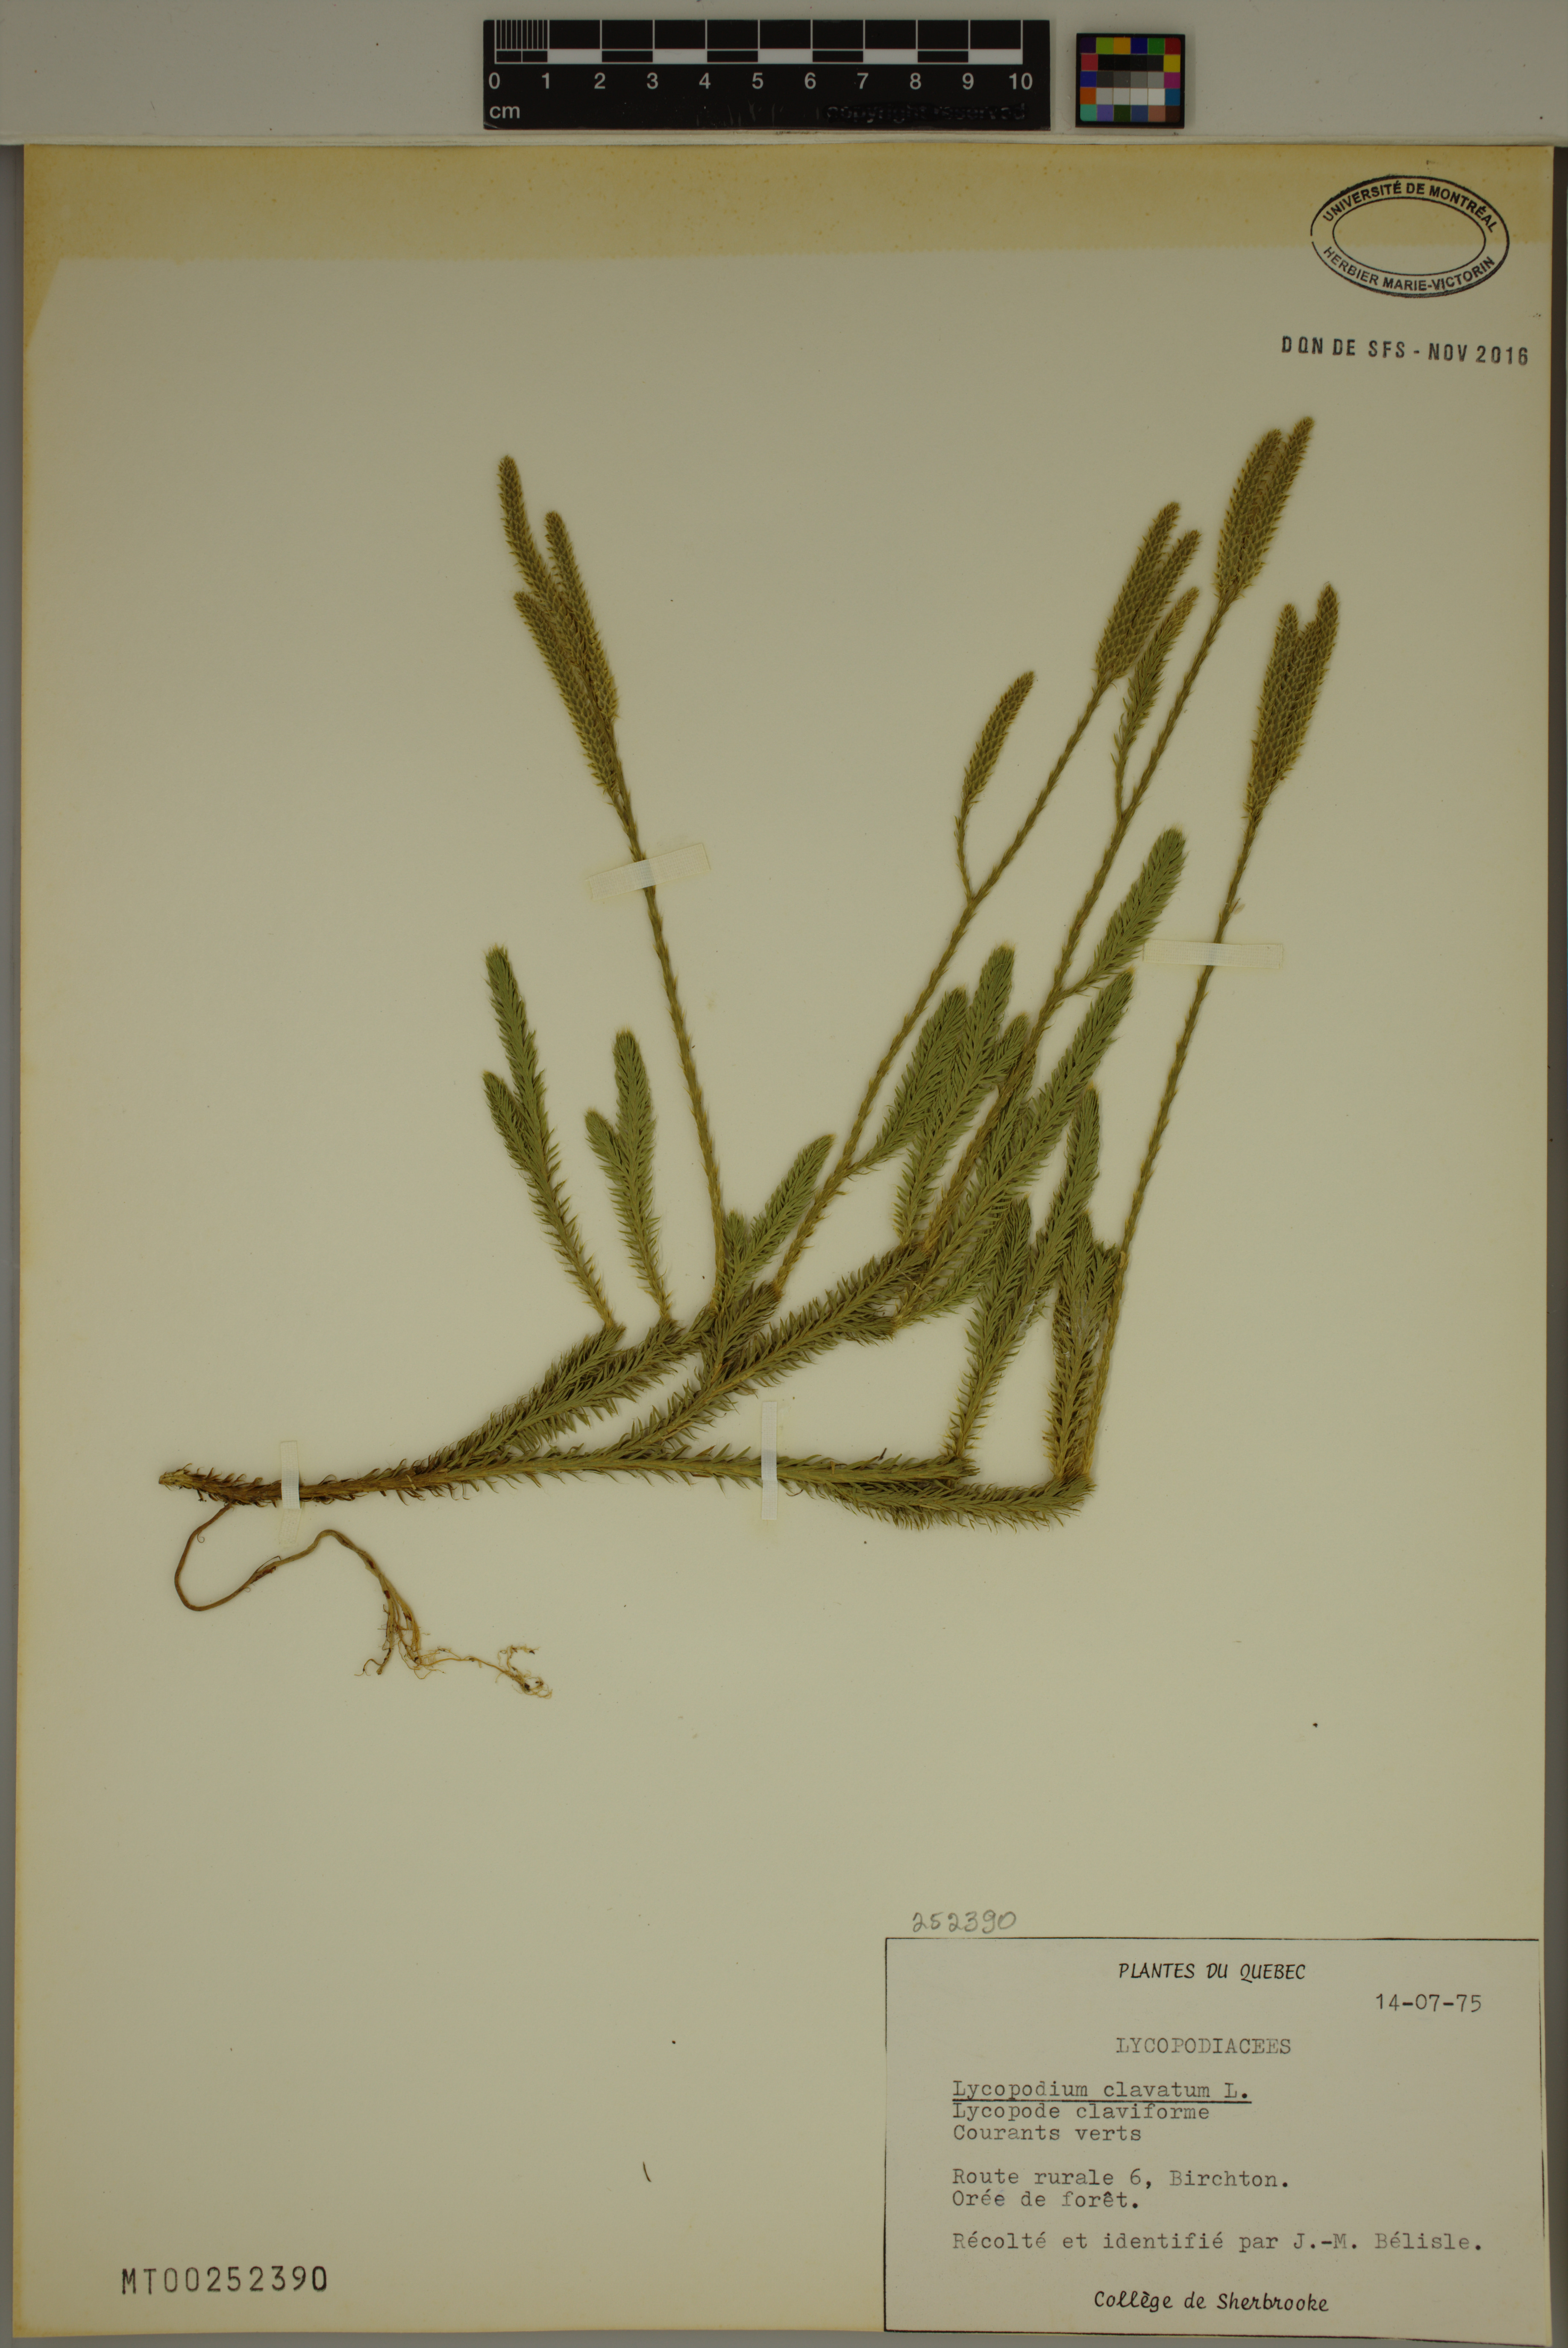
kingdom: Plantae
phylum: Tracheophyta
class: Lycopodiopsida
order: Lycopodiales
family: Lycopodiaceae
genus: Lycopodium
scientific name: Lycopodium clavatum
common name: Stag's-horn clubmoss
